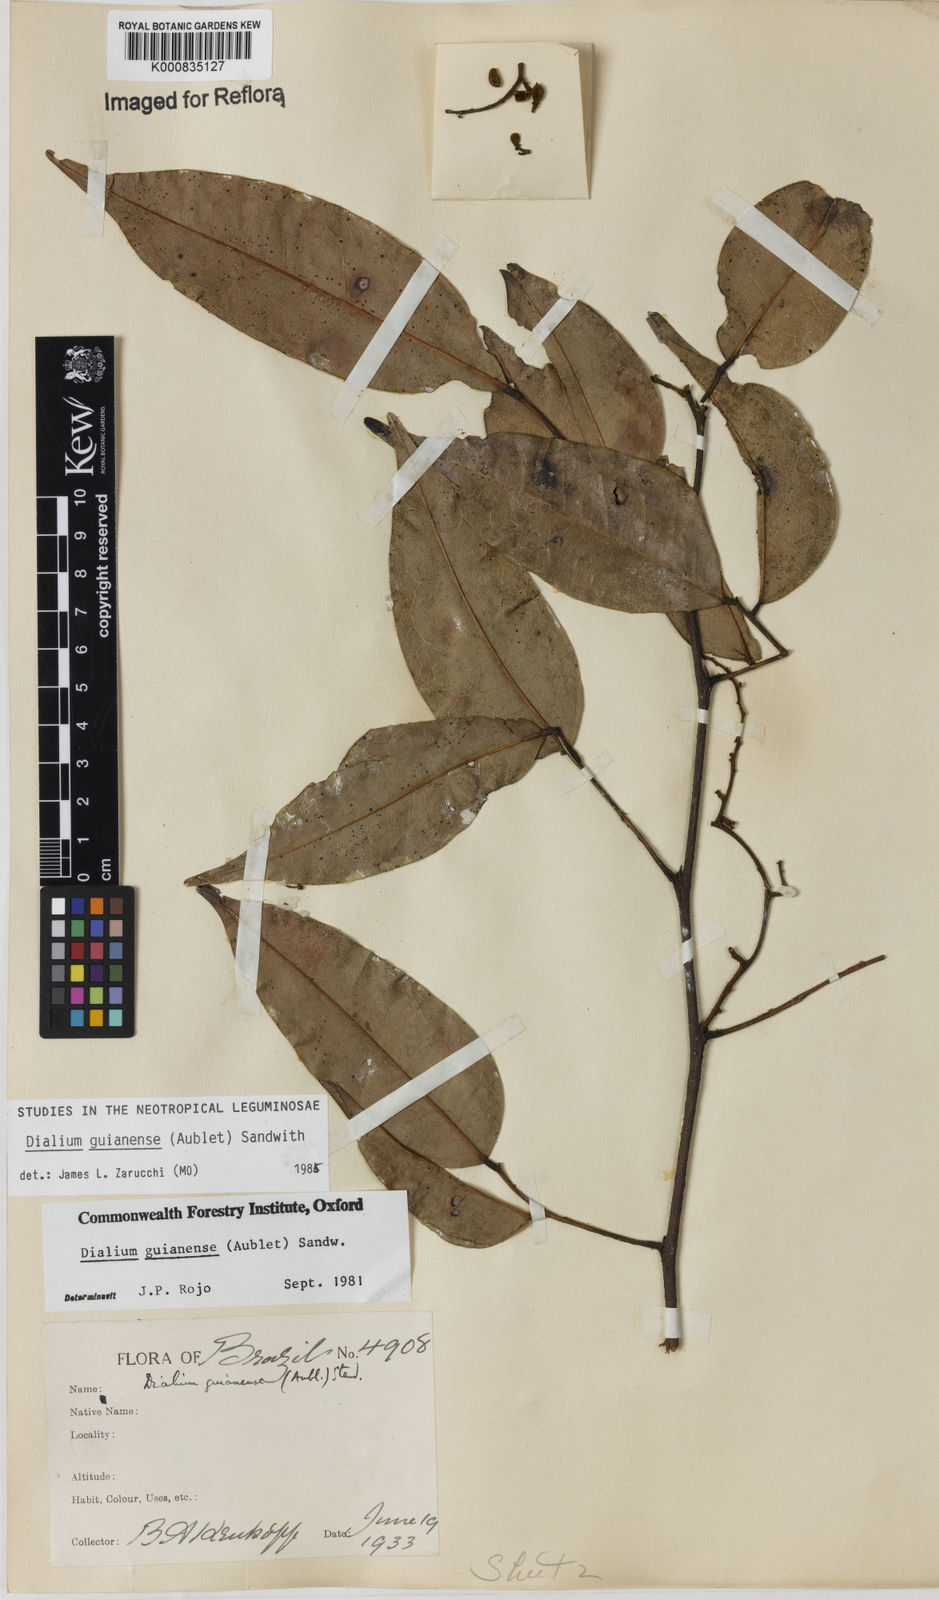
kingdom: Plantae
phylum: Tracheophyta
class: Magnoliopsida
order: Fabales
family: Fabaceae
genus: Dialium
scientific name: Dialium guianense
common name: Ironwood
